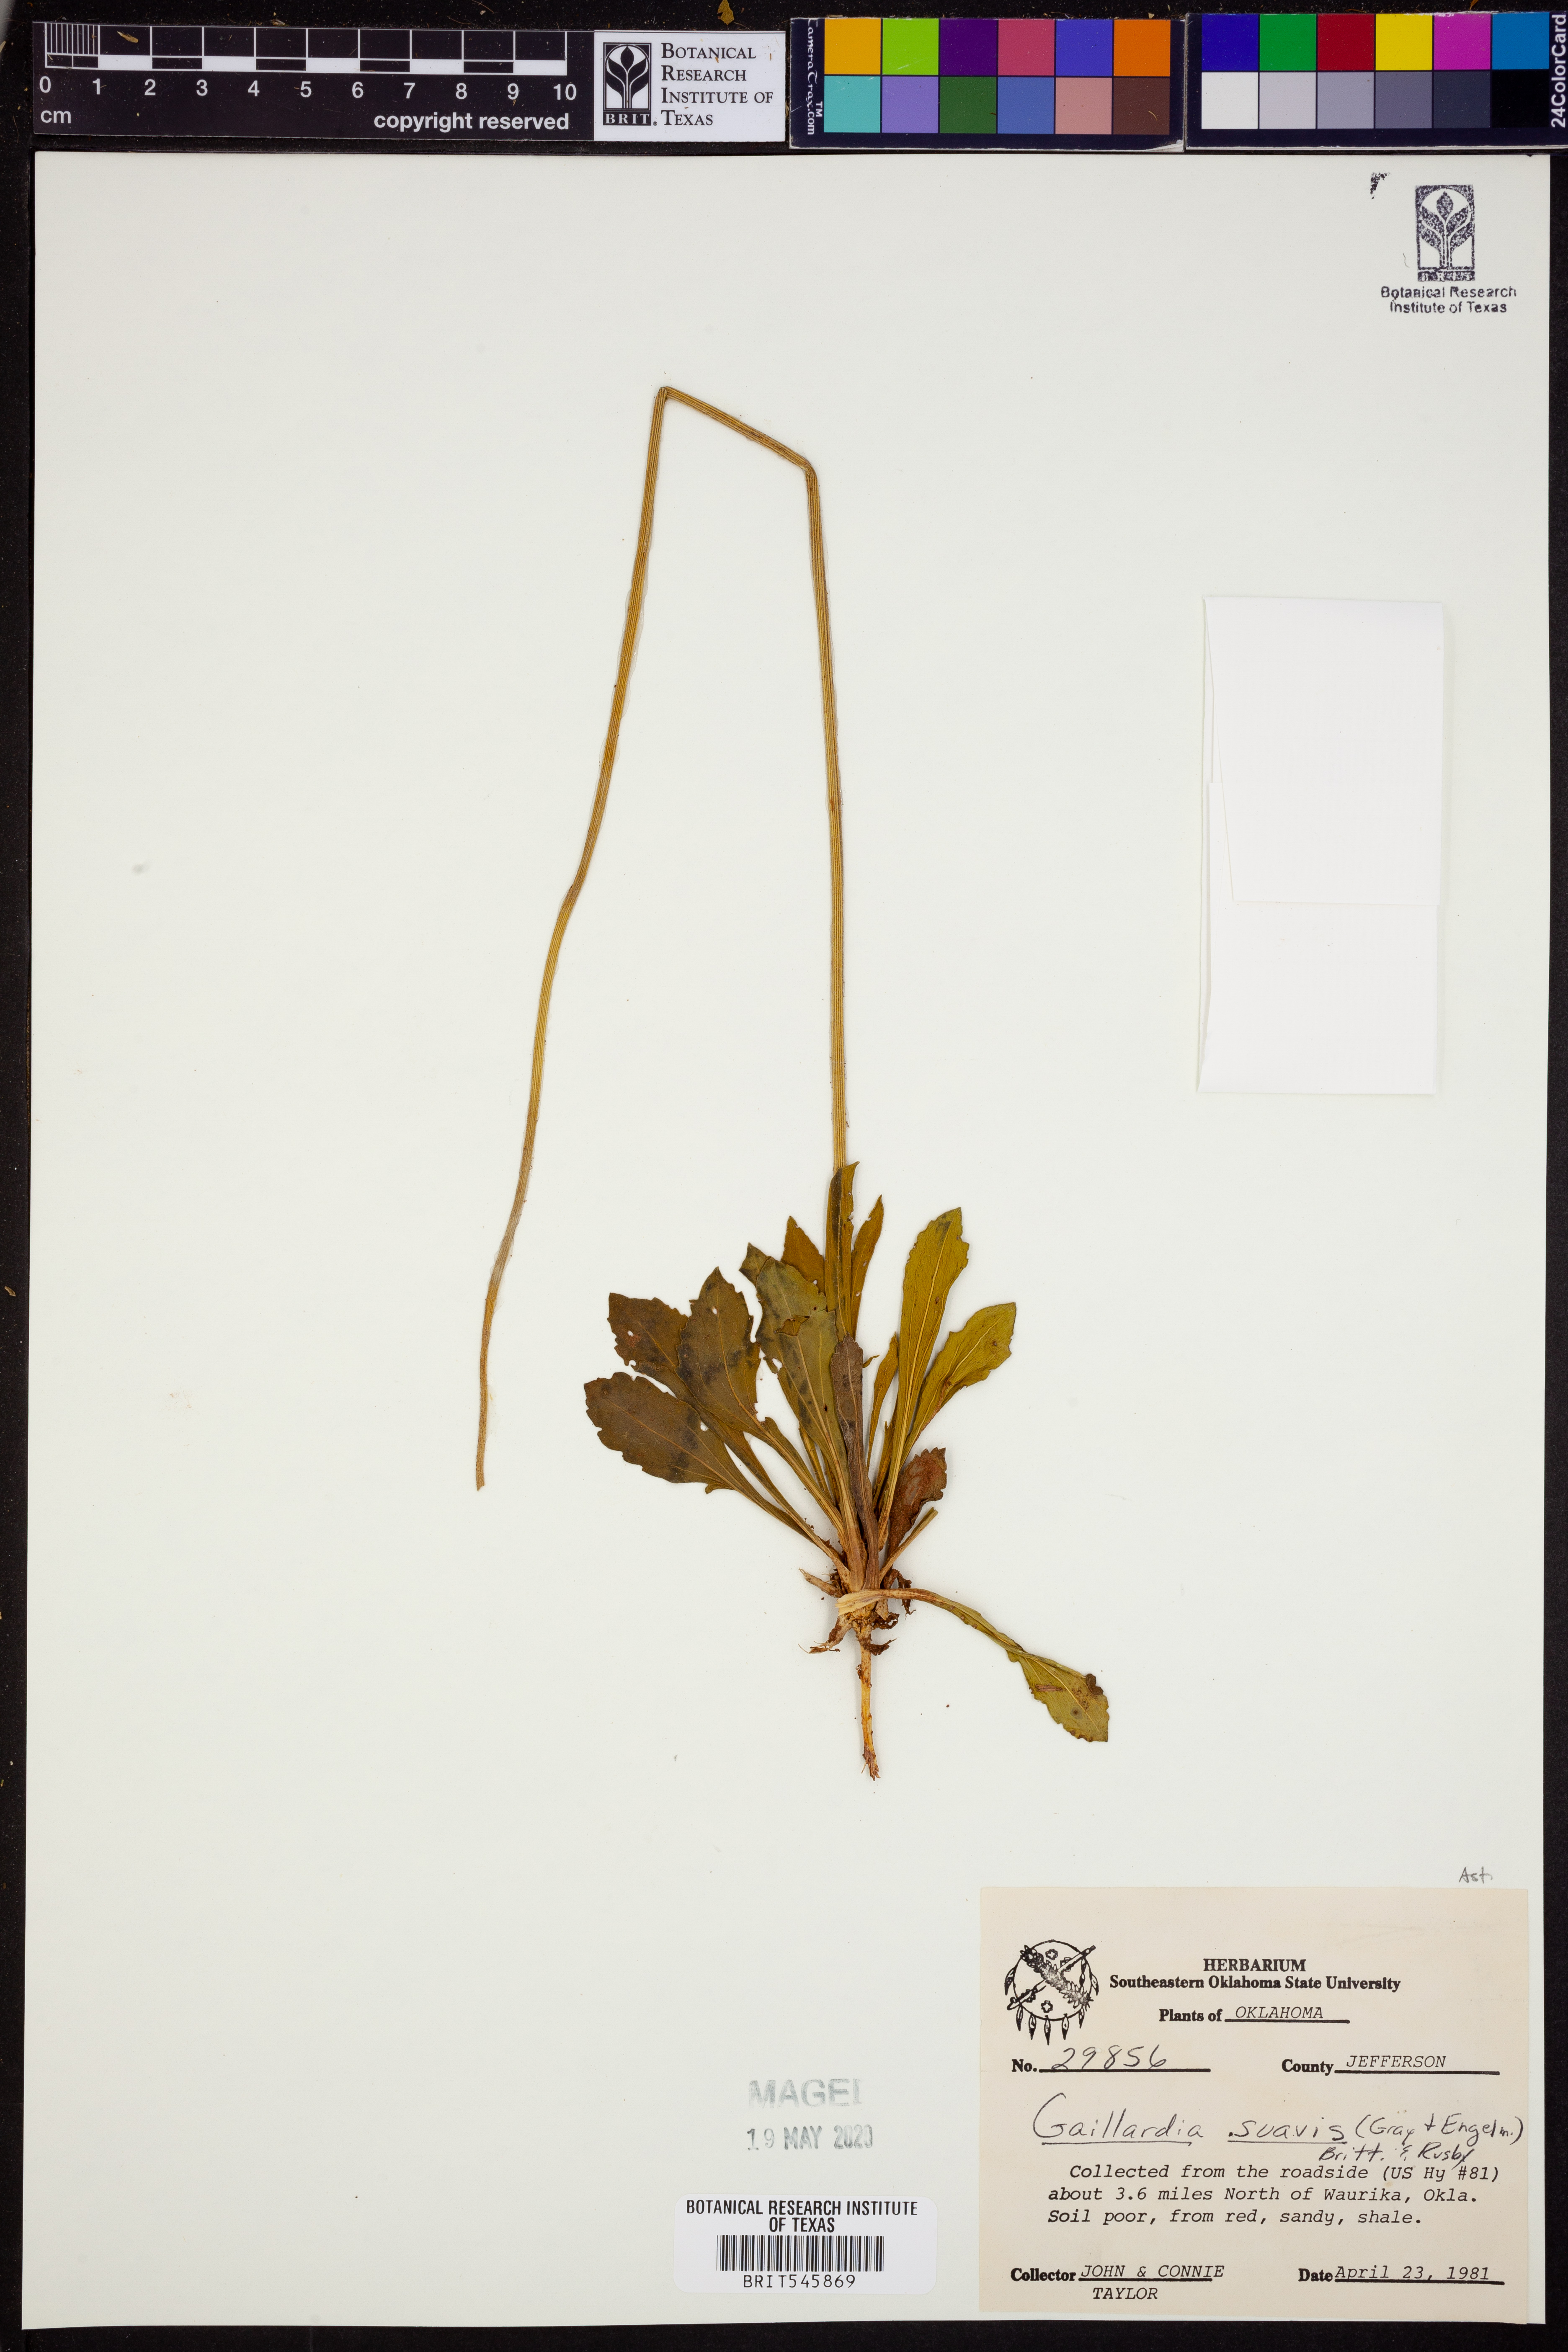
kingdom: Plantae
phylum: Tracheophyta
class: Magnoliopsida
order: Asterales
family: Asteraceae
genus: Gaillardia
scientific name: Gaillardia suavis
